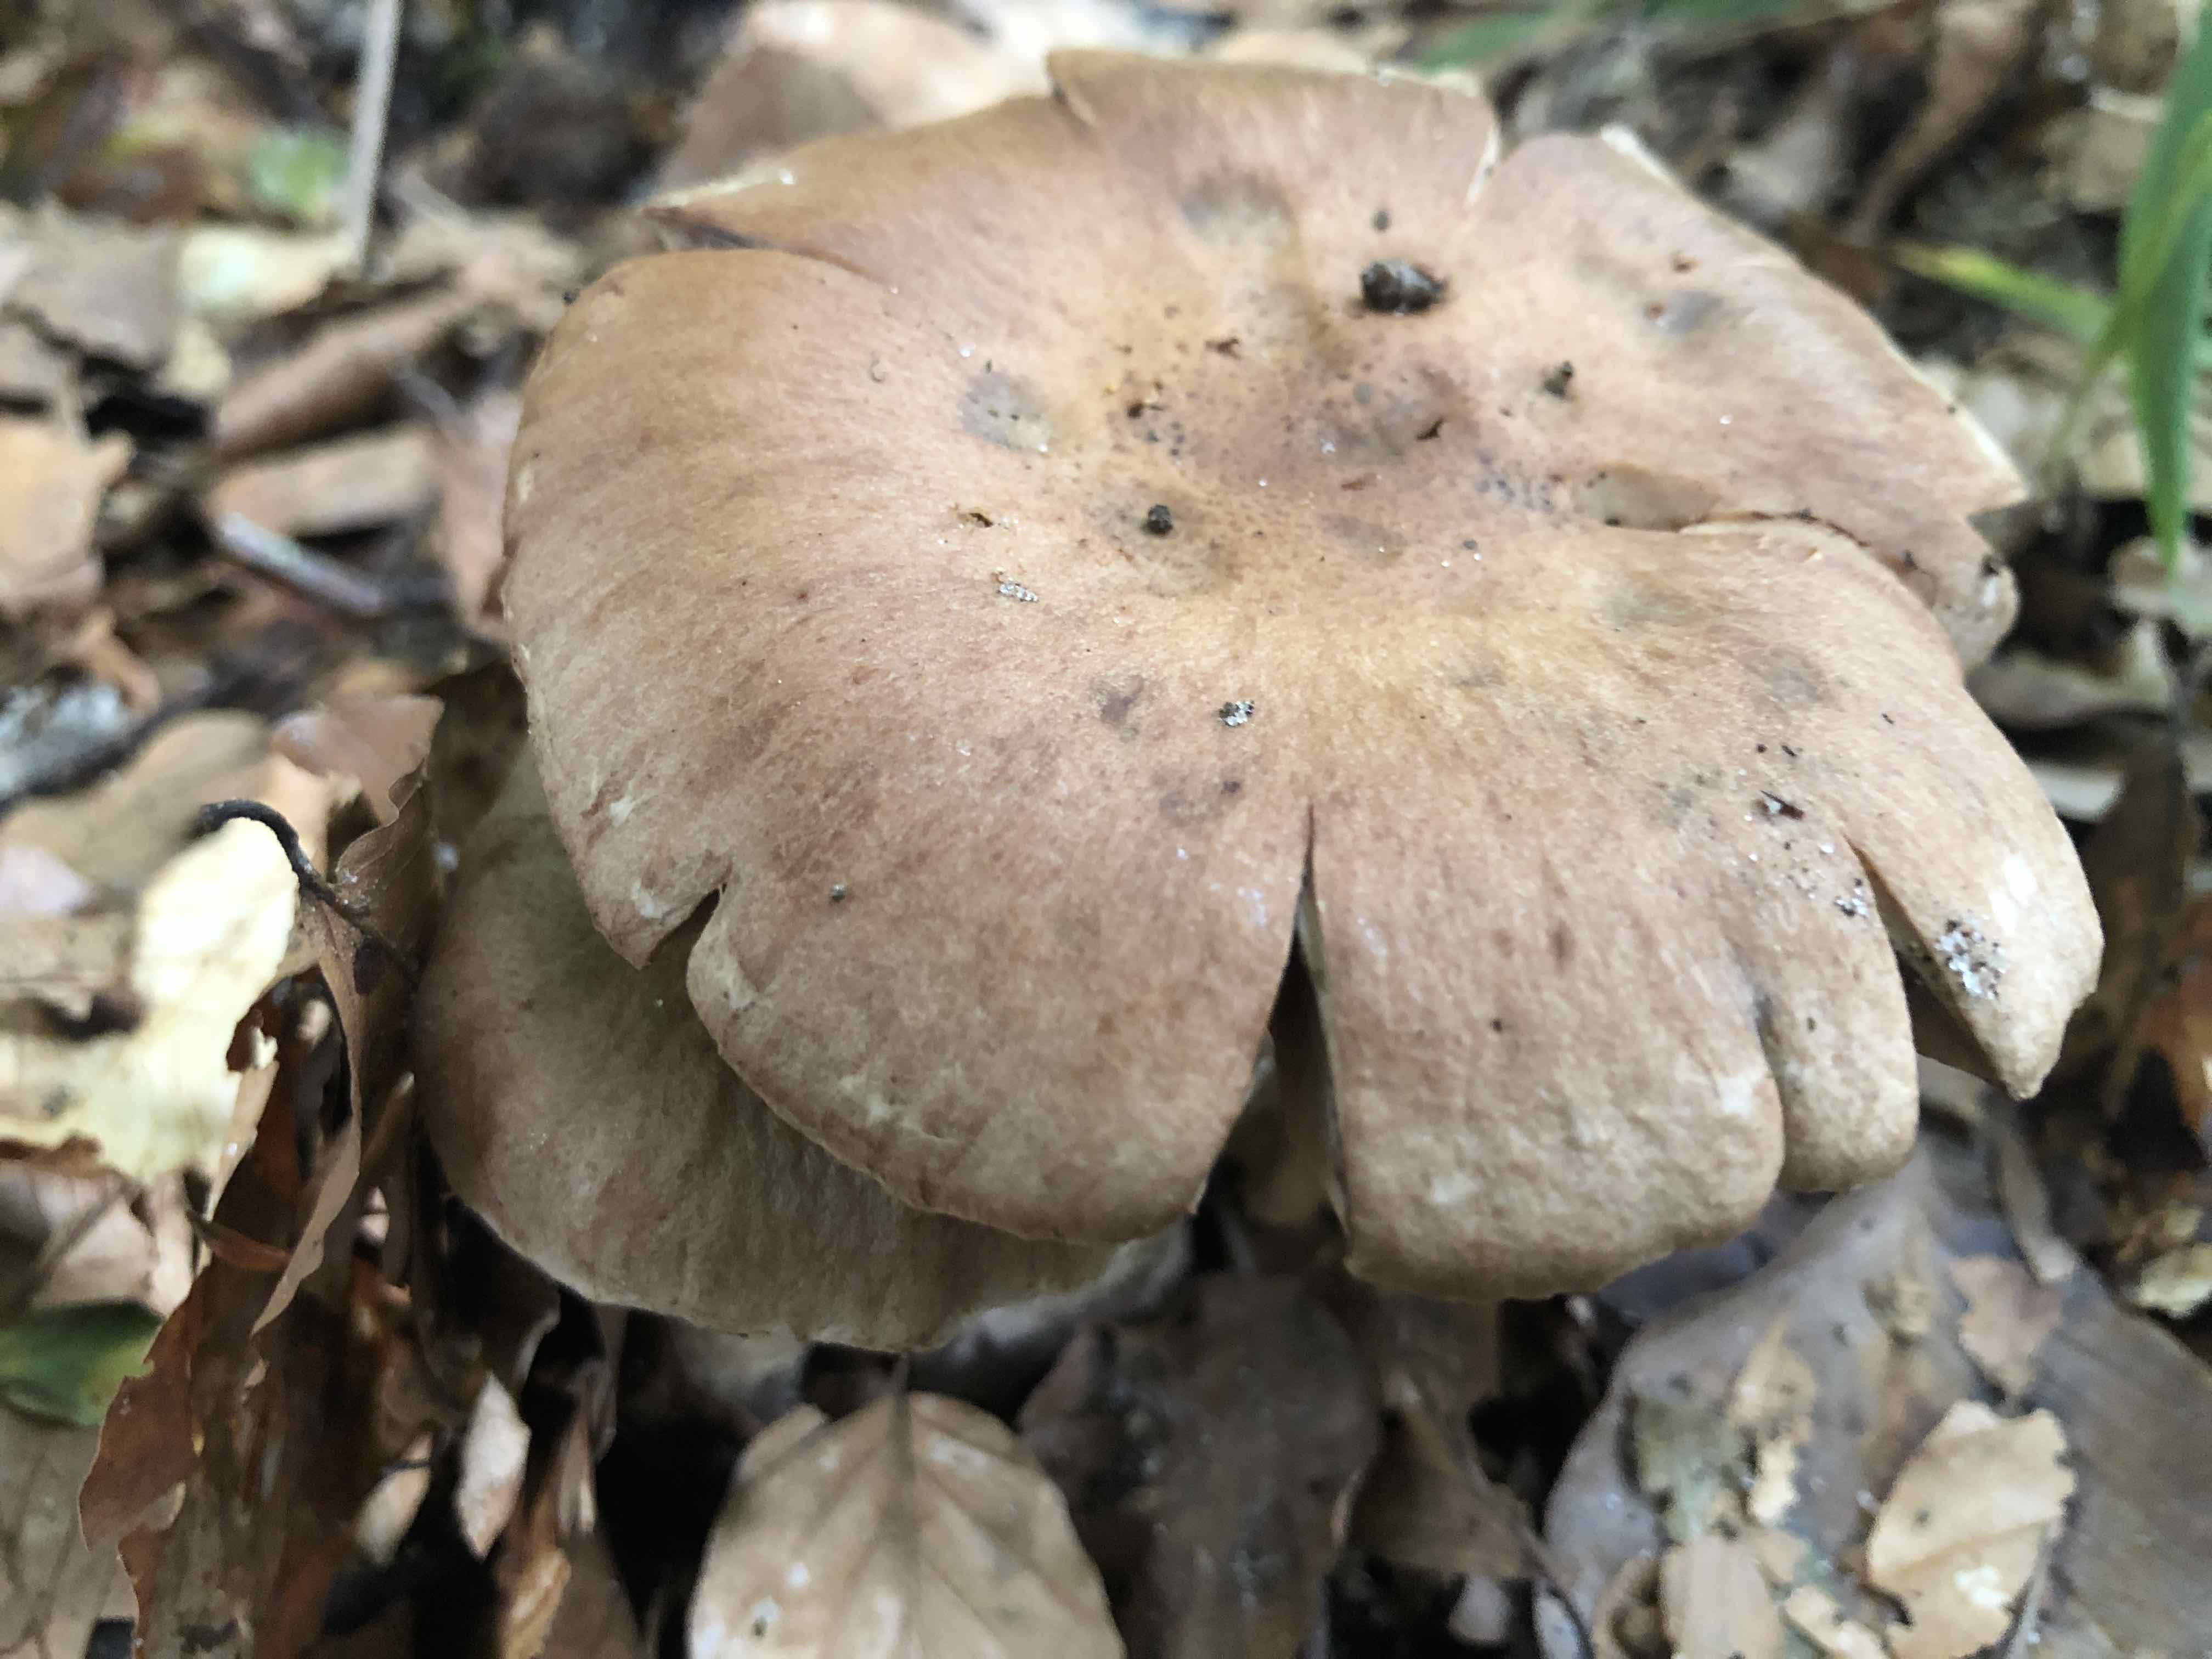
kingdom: Fungi
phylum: Basidiomycota
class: Agaricomycetes
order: Agaricales
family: Cortinariaceae
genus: Cortinarius
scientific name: Cortinarius torvus
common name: champignonagtig slørhat
